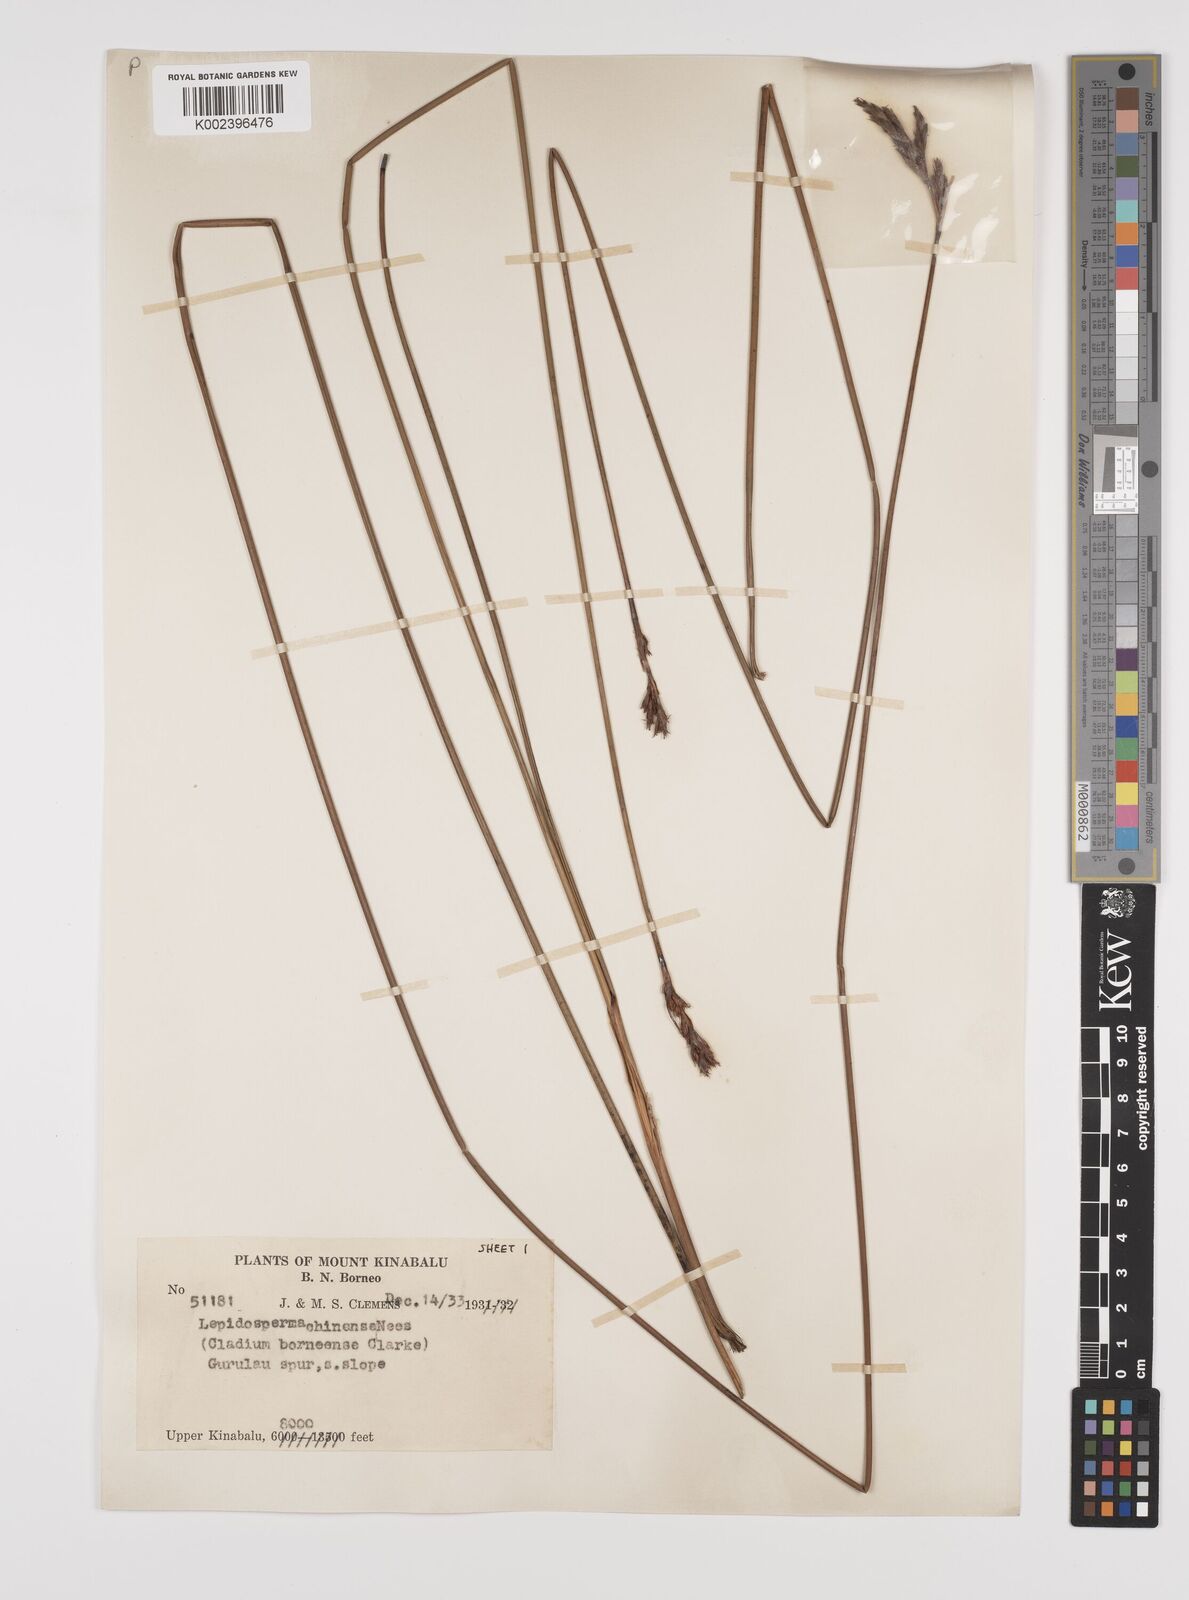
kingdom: Plantae
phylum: Tracheophyta
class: Liliopsida
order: Poales
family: Cyperaceae
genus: Lepidosperma
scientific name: Lepidosperma chinense
